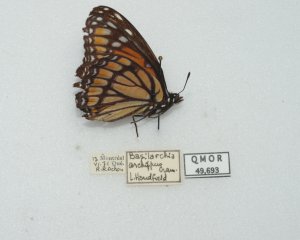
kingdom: Animalia
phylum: Arthropoda
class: Insecta
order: Lepidoptera
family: Nymphalidae
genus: Limenitis
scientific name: Limenitis archippus
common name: Viceroy
